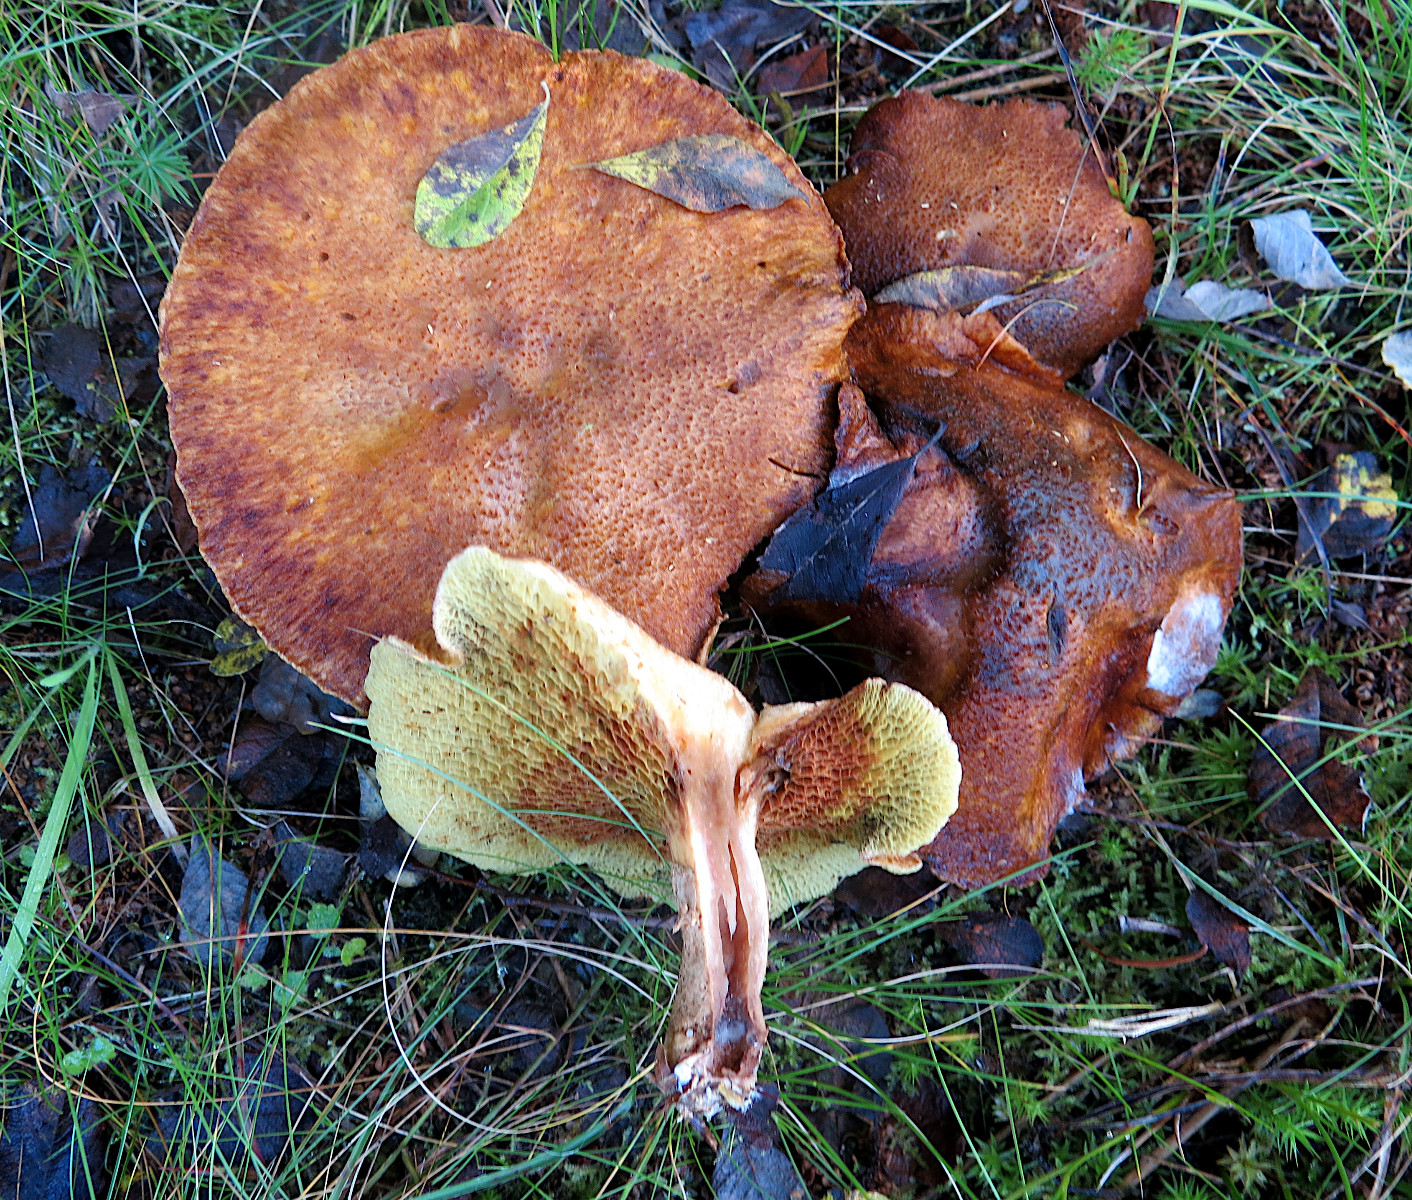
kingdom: Fungi
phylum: Basidiomycota
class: Agaricomycetes
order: Boletales
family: Suillaceae
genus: Suillus
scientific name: Suillus cavipes
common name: hulstokket slimrørhat
